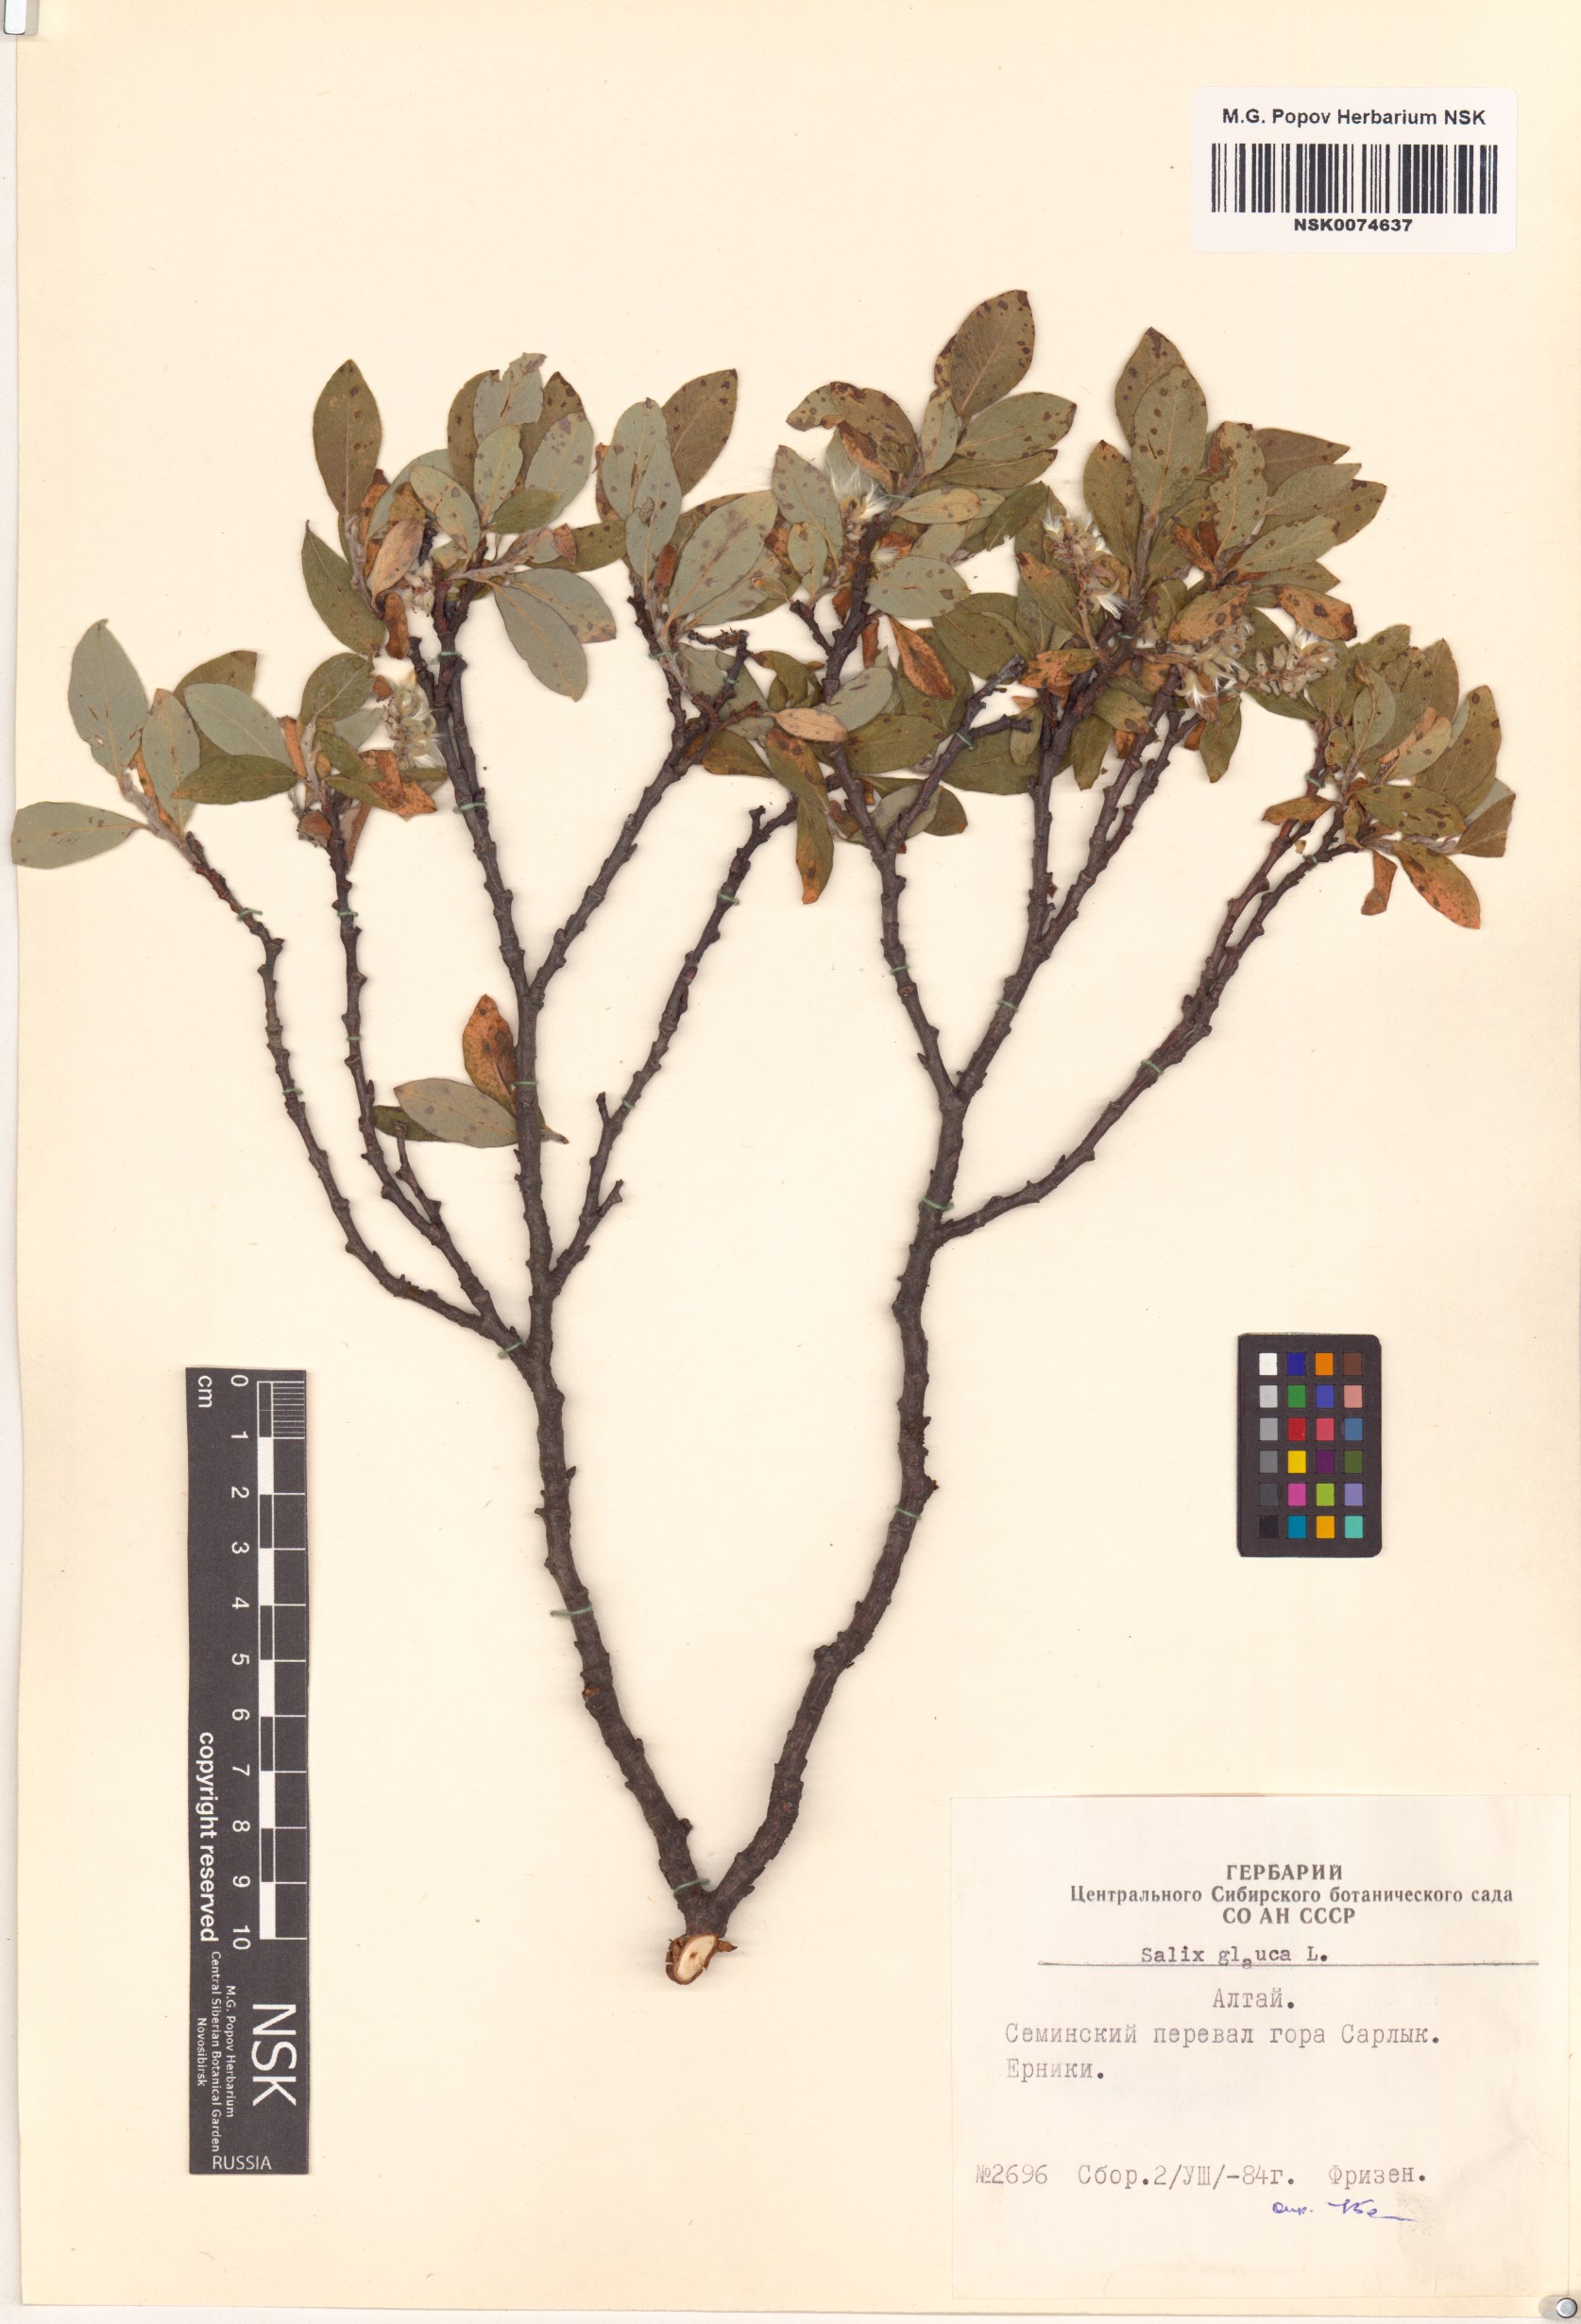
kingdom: Plantae
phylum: Tracheophyta
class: Magnoliopsida
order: Malpighiales
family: Salicaceae
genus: Salix
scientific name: Salix glauca
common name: Glaucous willow
